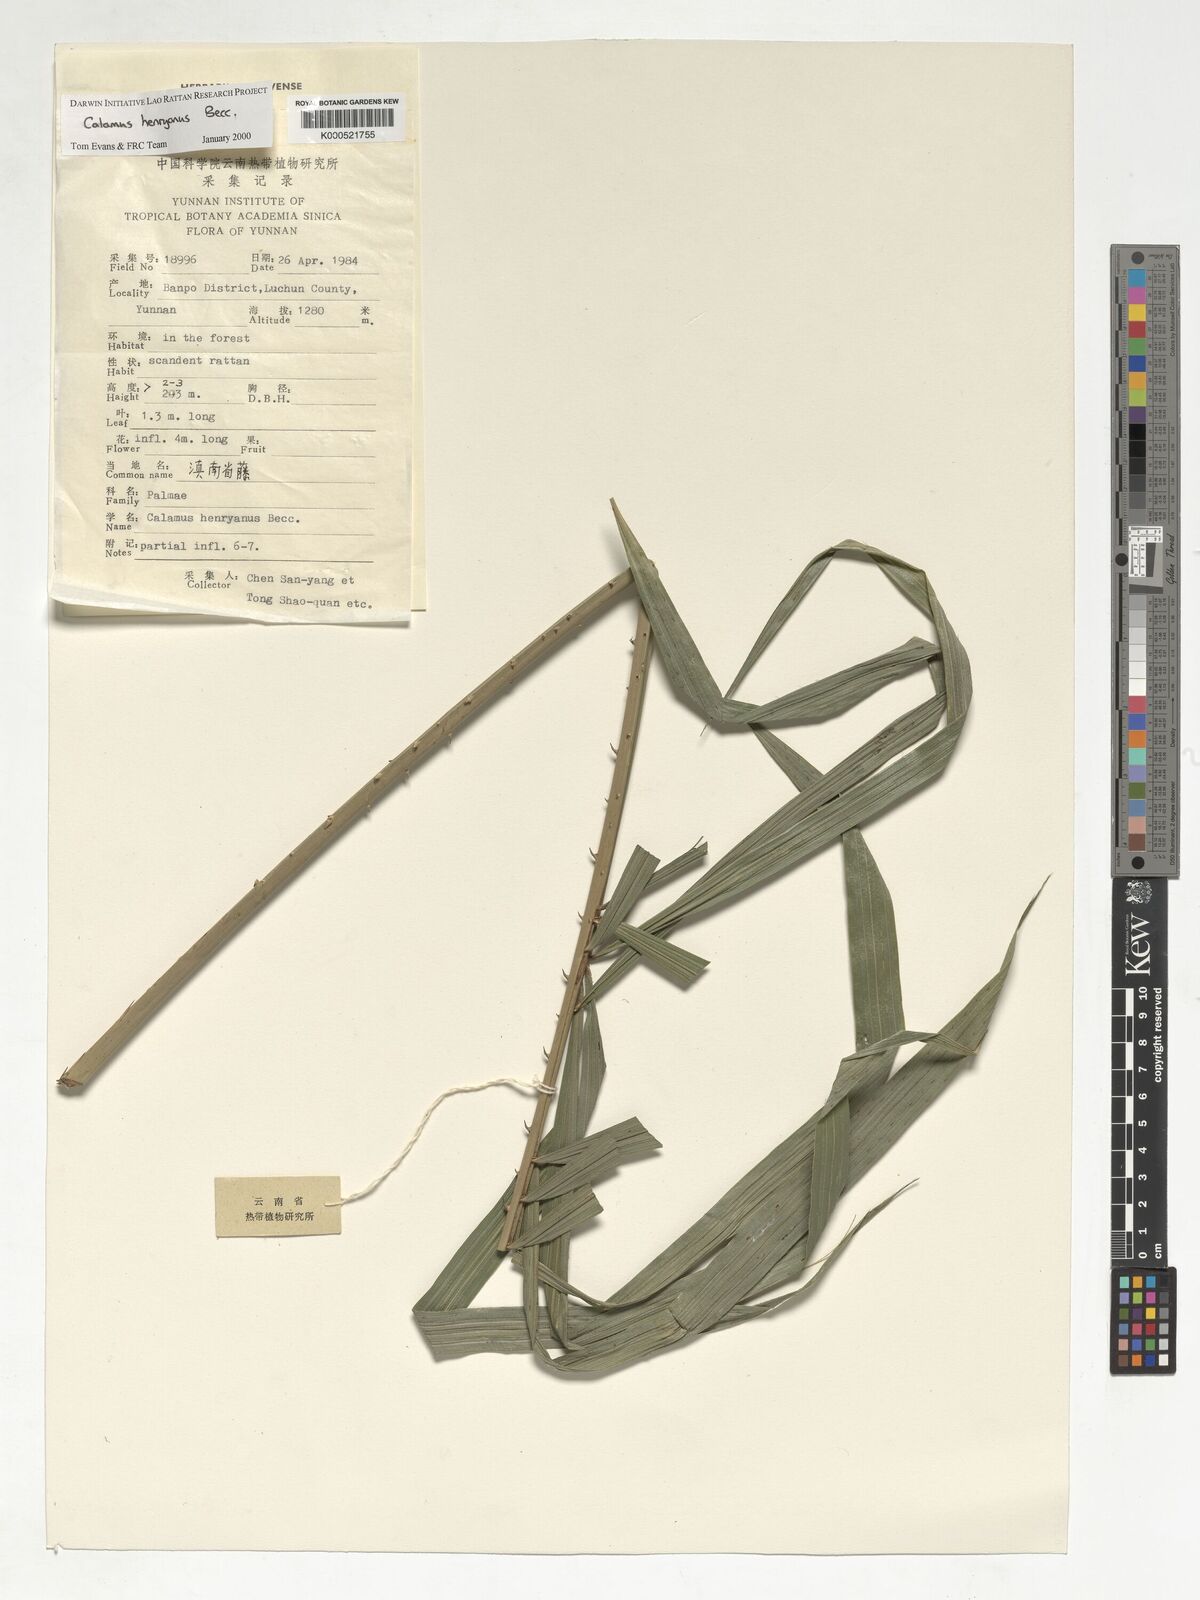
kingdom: Plantae
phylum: Tracheophyta
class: Liliopsida
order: Arecales
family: Arecaceae
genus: Calamus
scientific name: Calamus henryanus
